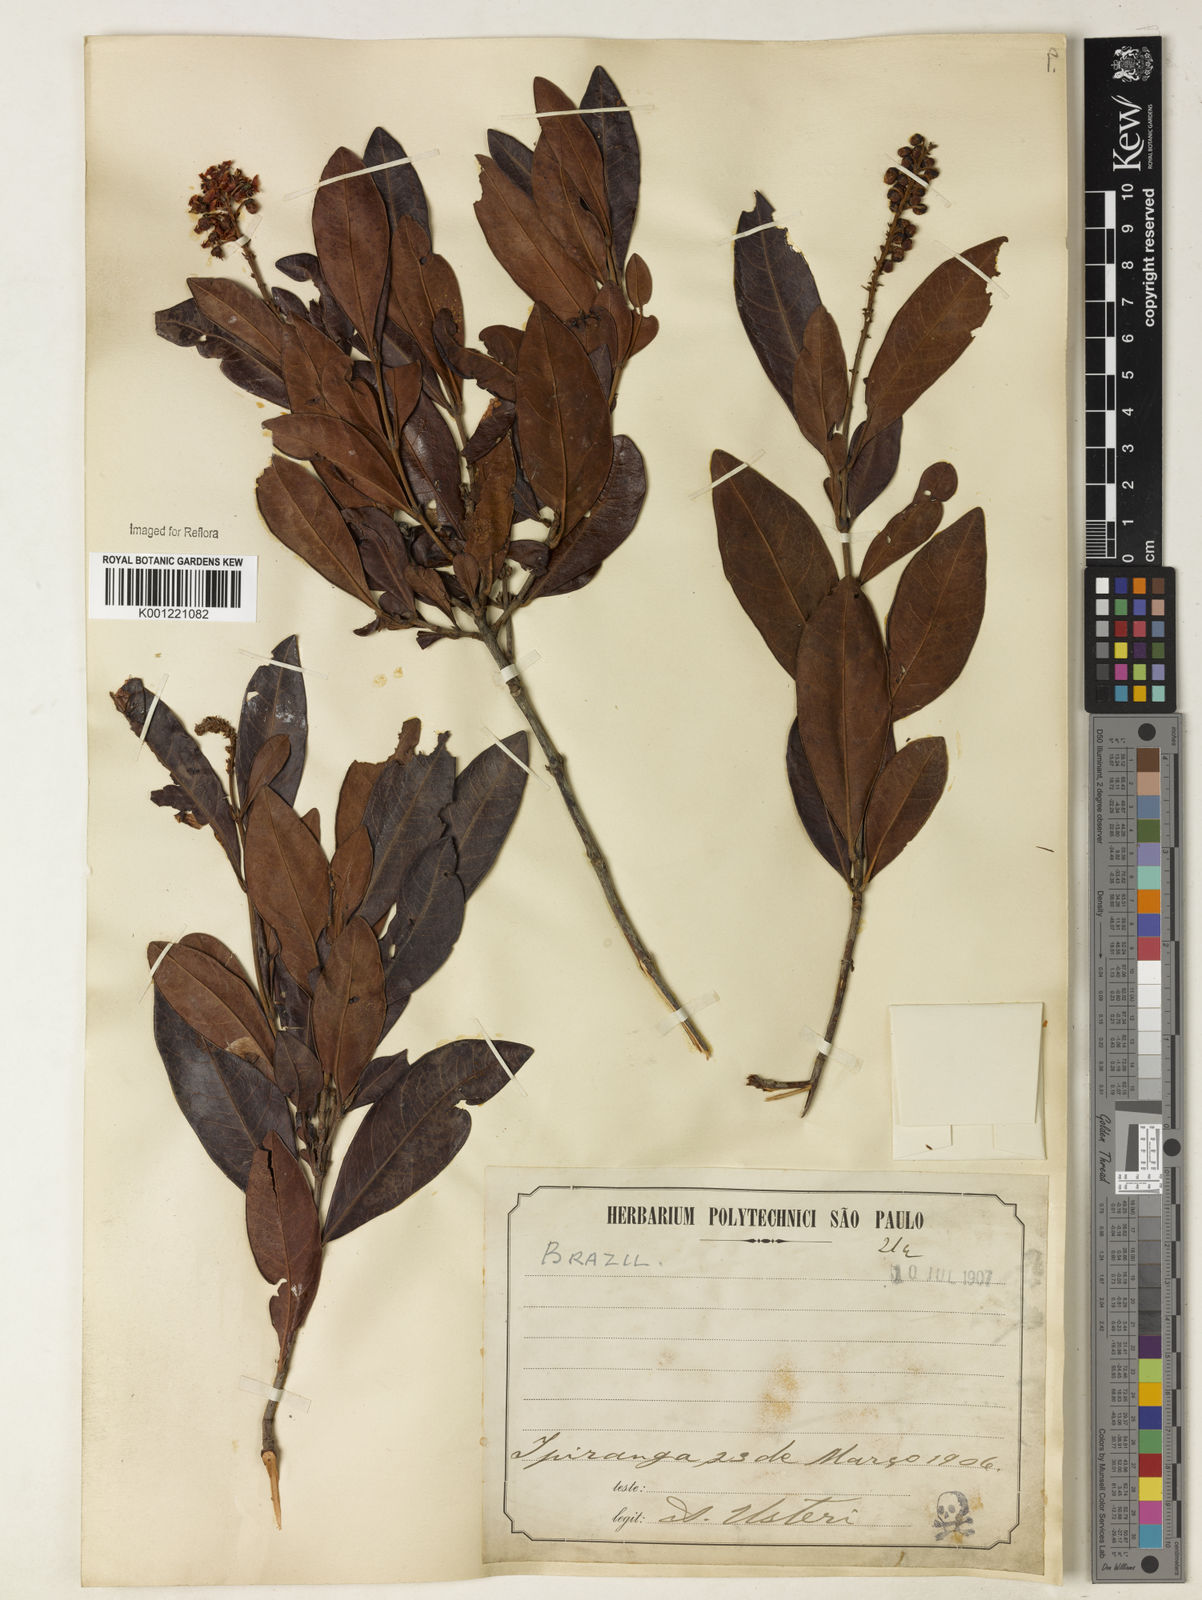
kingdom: Plantae
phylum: Tracheophyta
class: Magnoliopsida
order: Malpighiales
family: Malpighiaceae
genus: Byrsonima
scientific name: Byrsonima intermedia
